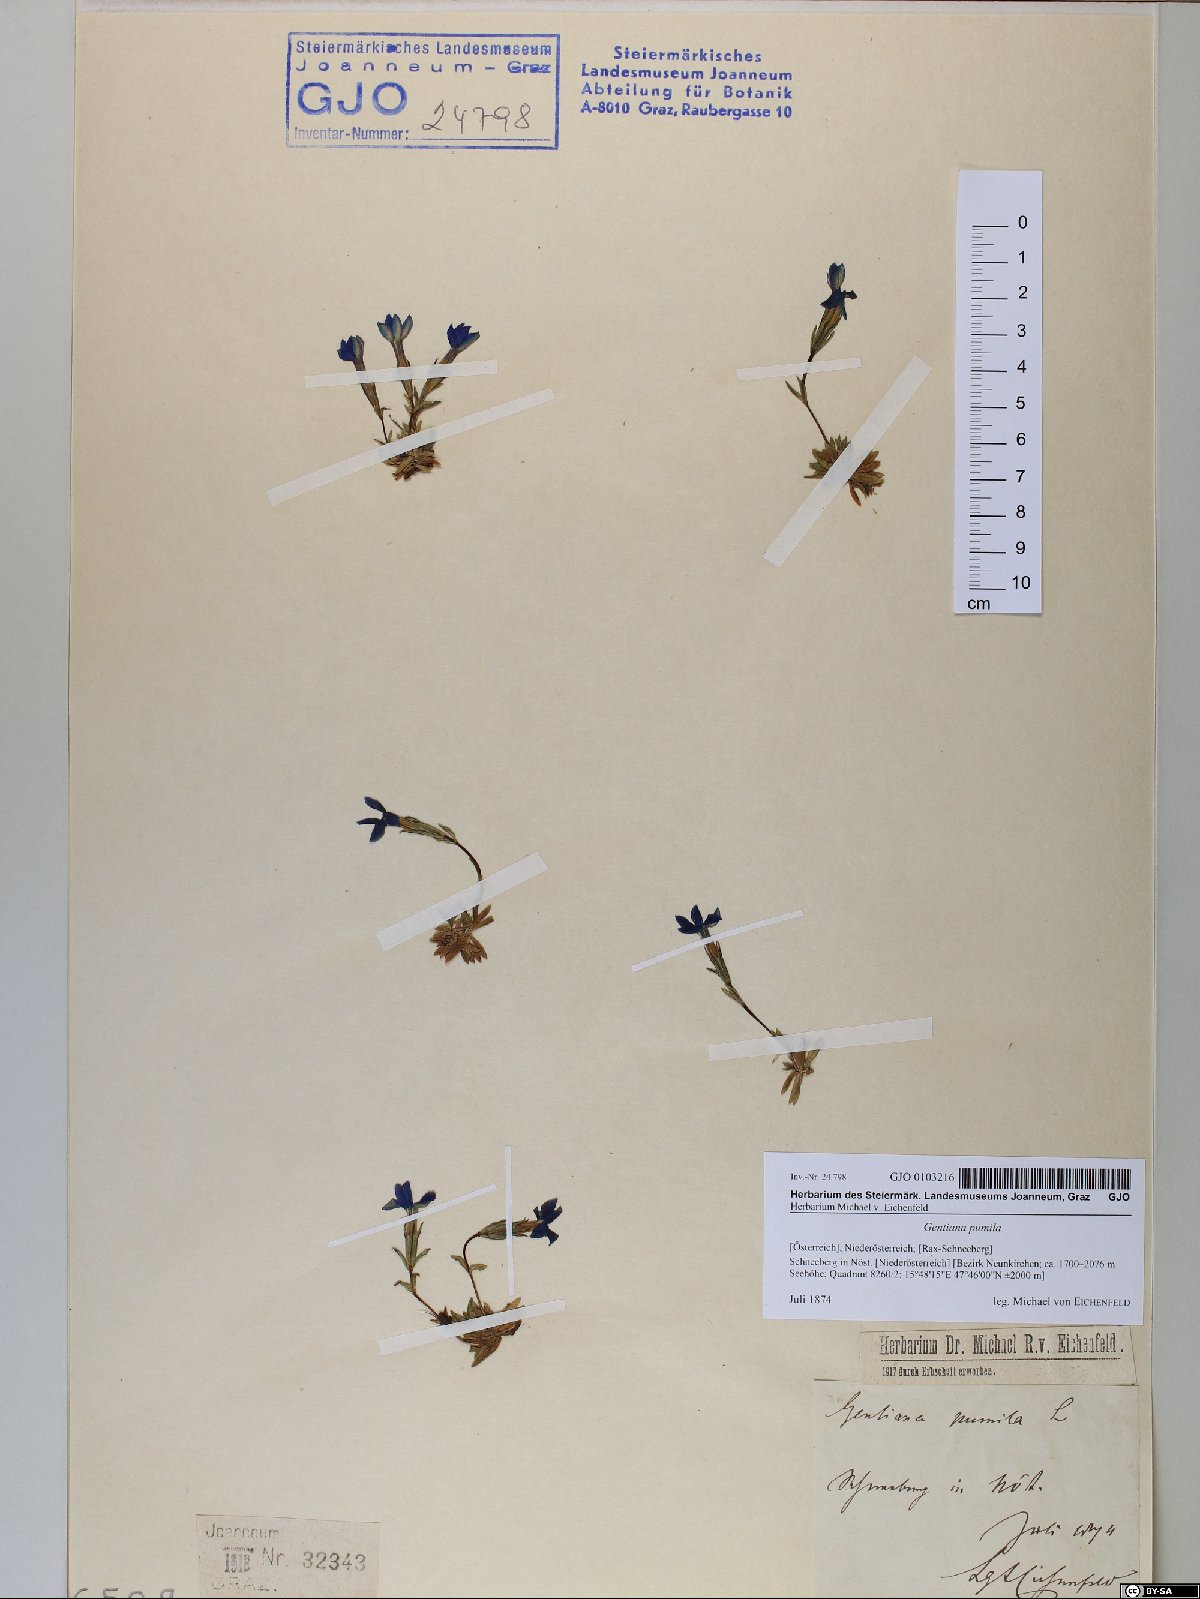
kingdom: Plantae
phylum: Tracheophyta
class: Magnoliopsida
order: Gentianales
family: Gentianaceae
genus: Gentiana
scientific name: Gentiana pumila
